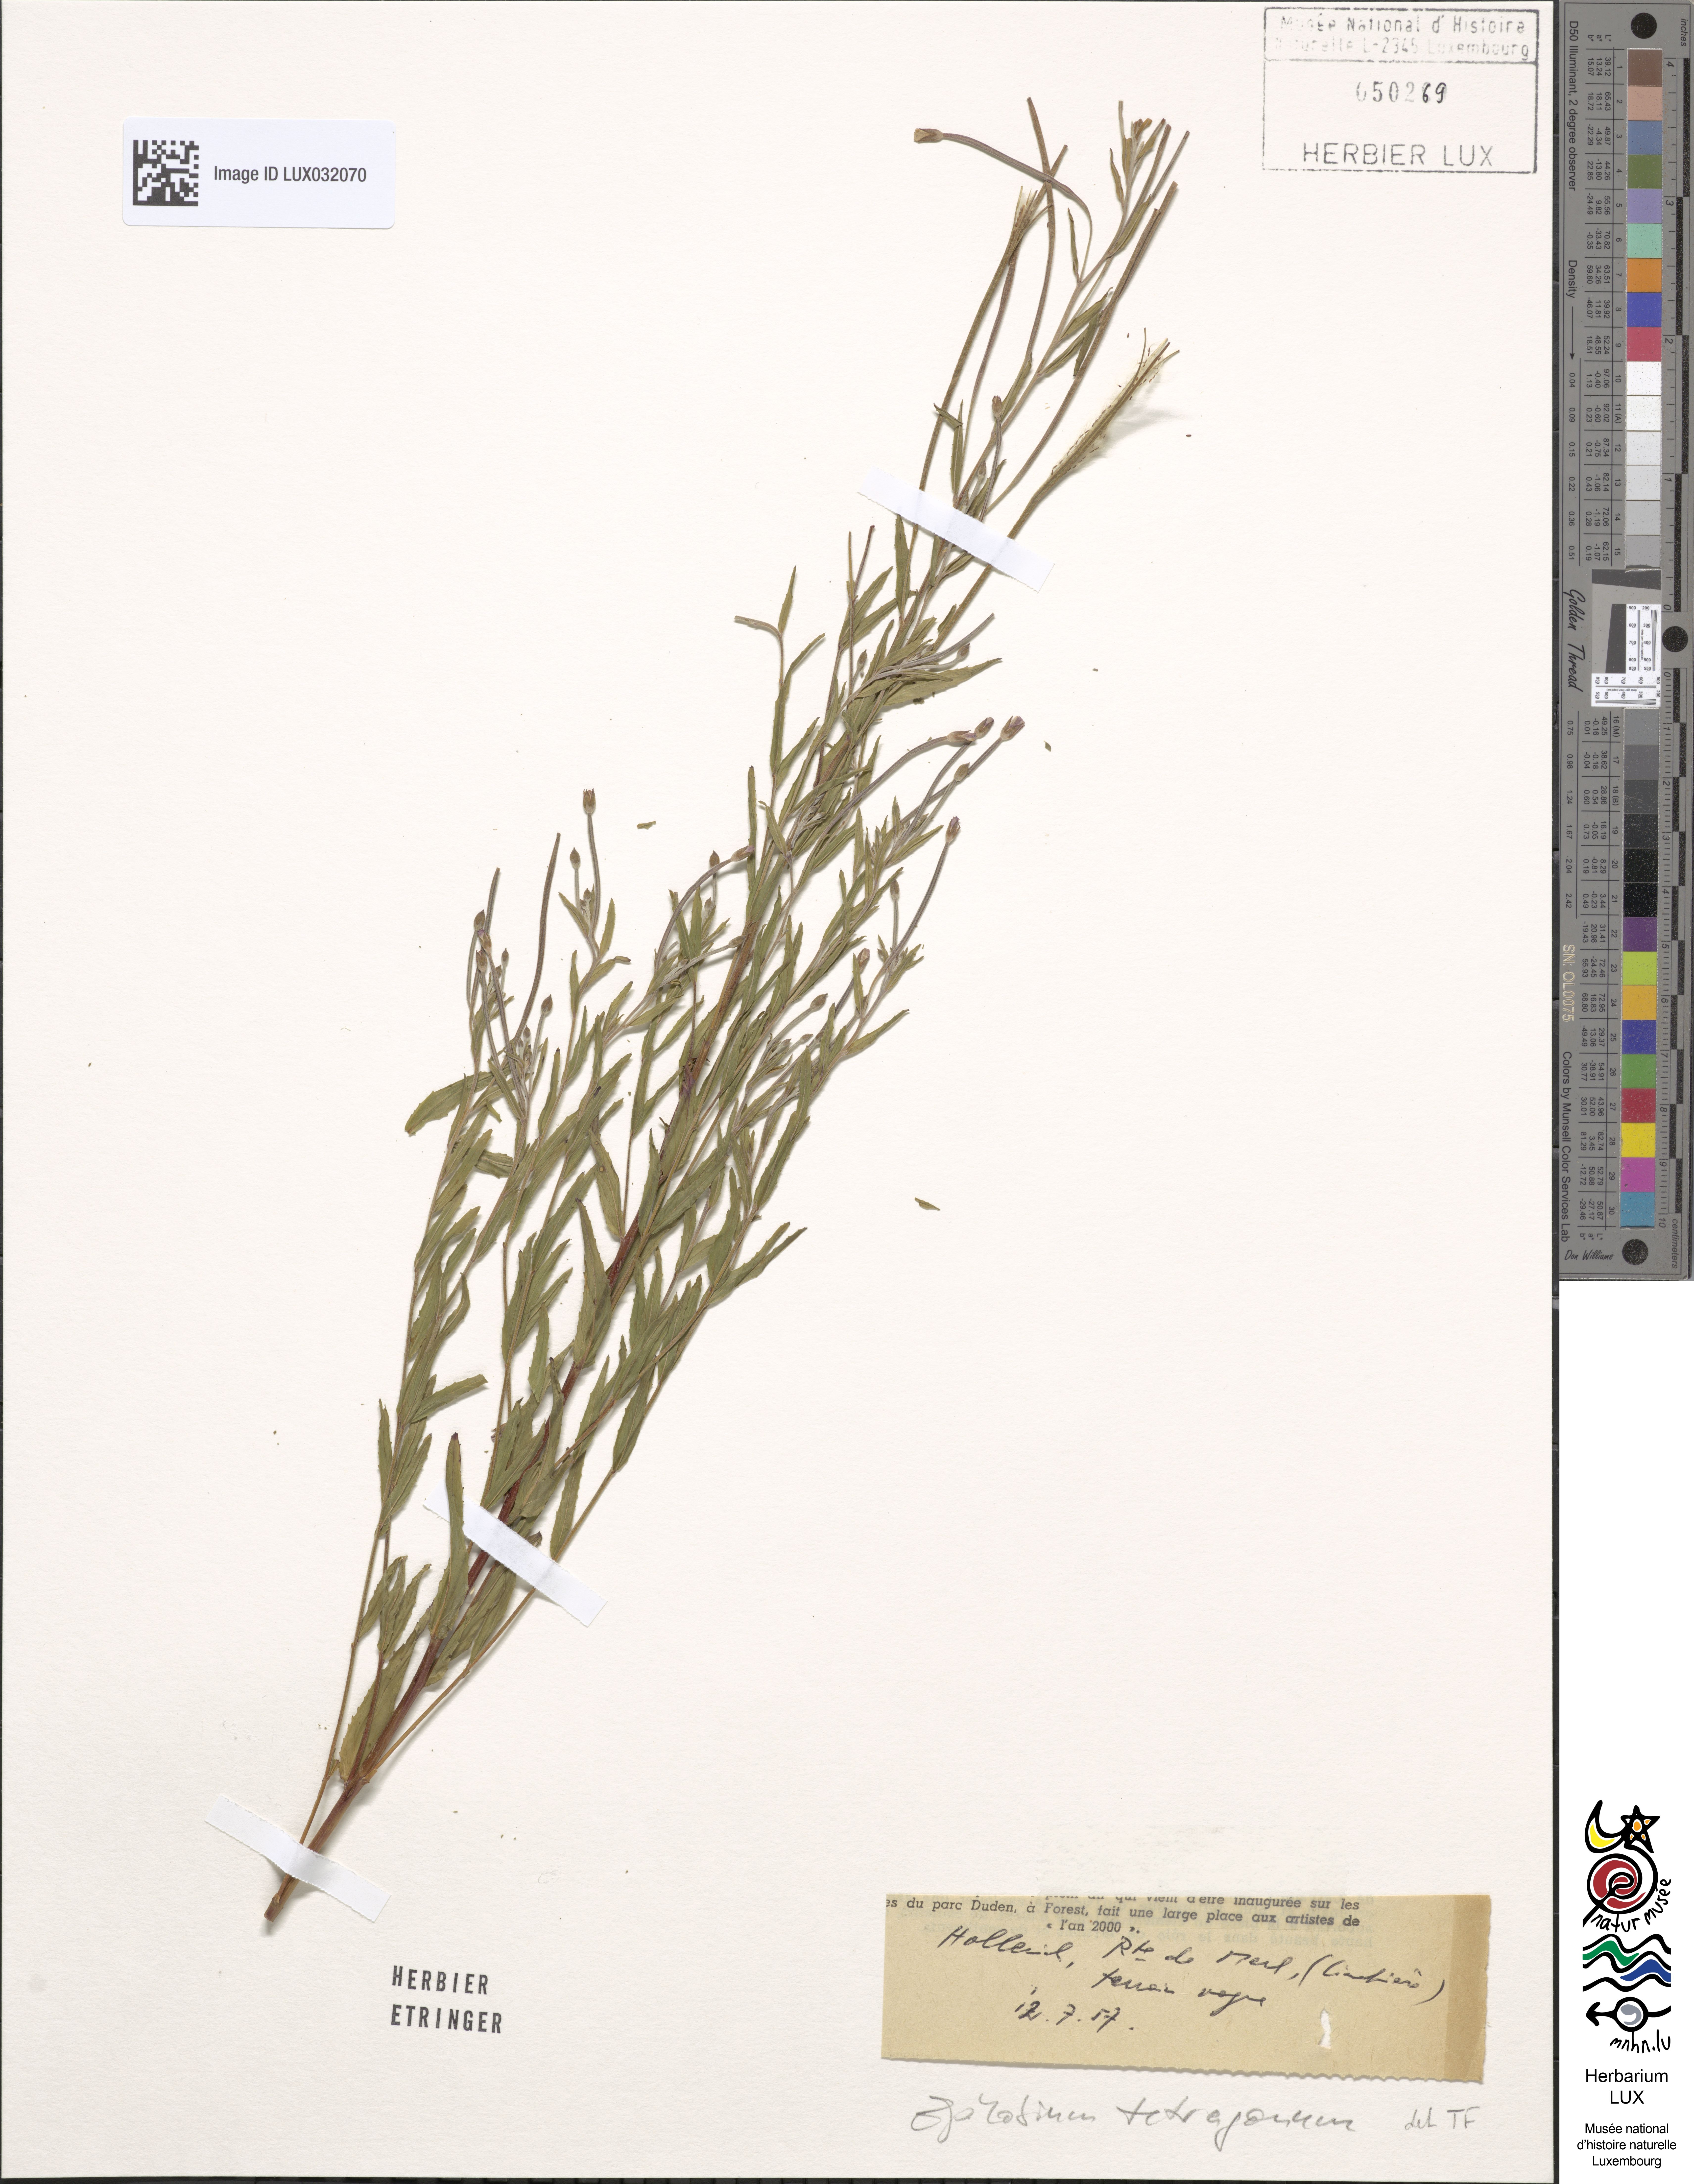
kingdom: Plantae
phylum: Tracheophyta
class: Magnoliopsida
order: Myrtales
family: Onagraceae
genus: Epilobium
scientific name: Epilobium tetragonum
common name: Square-stemmed willowherb
